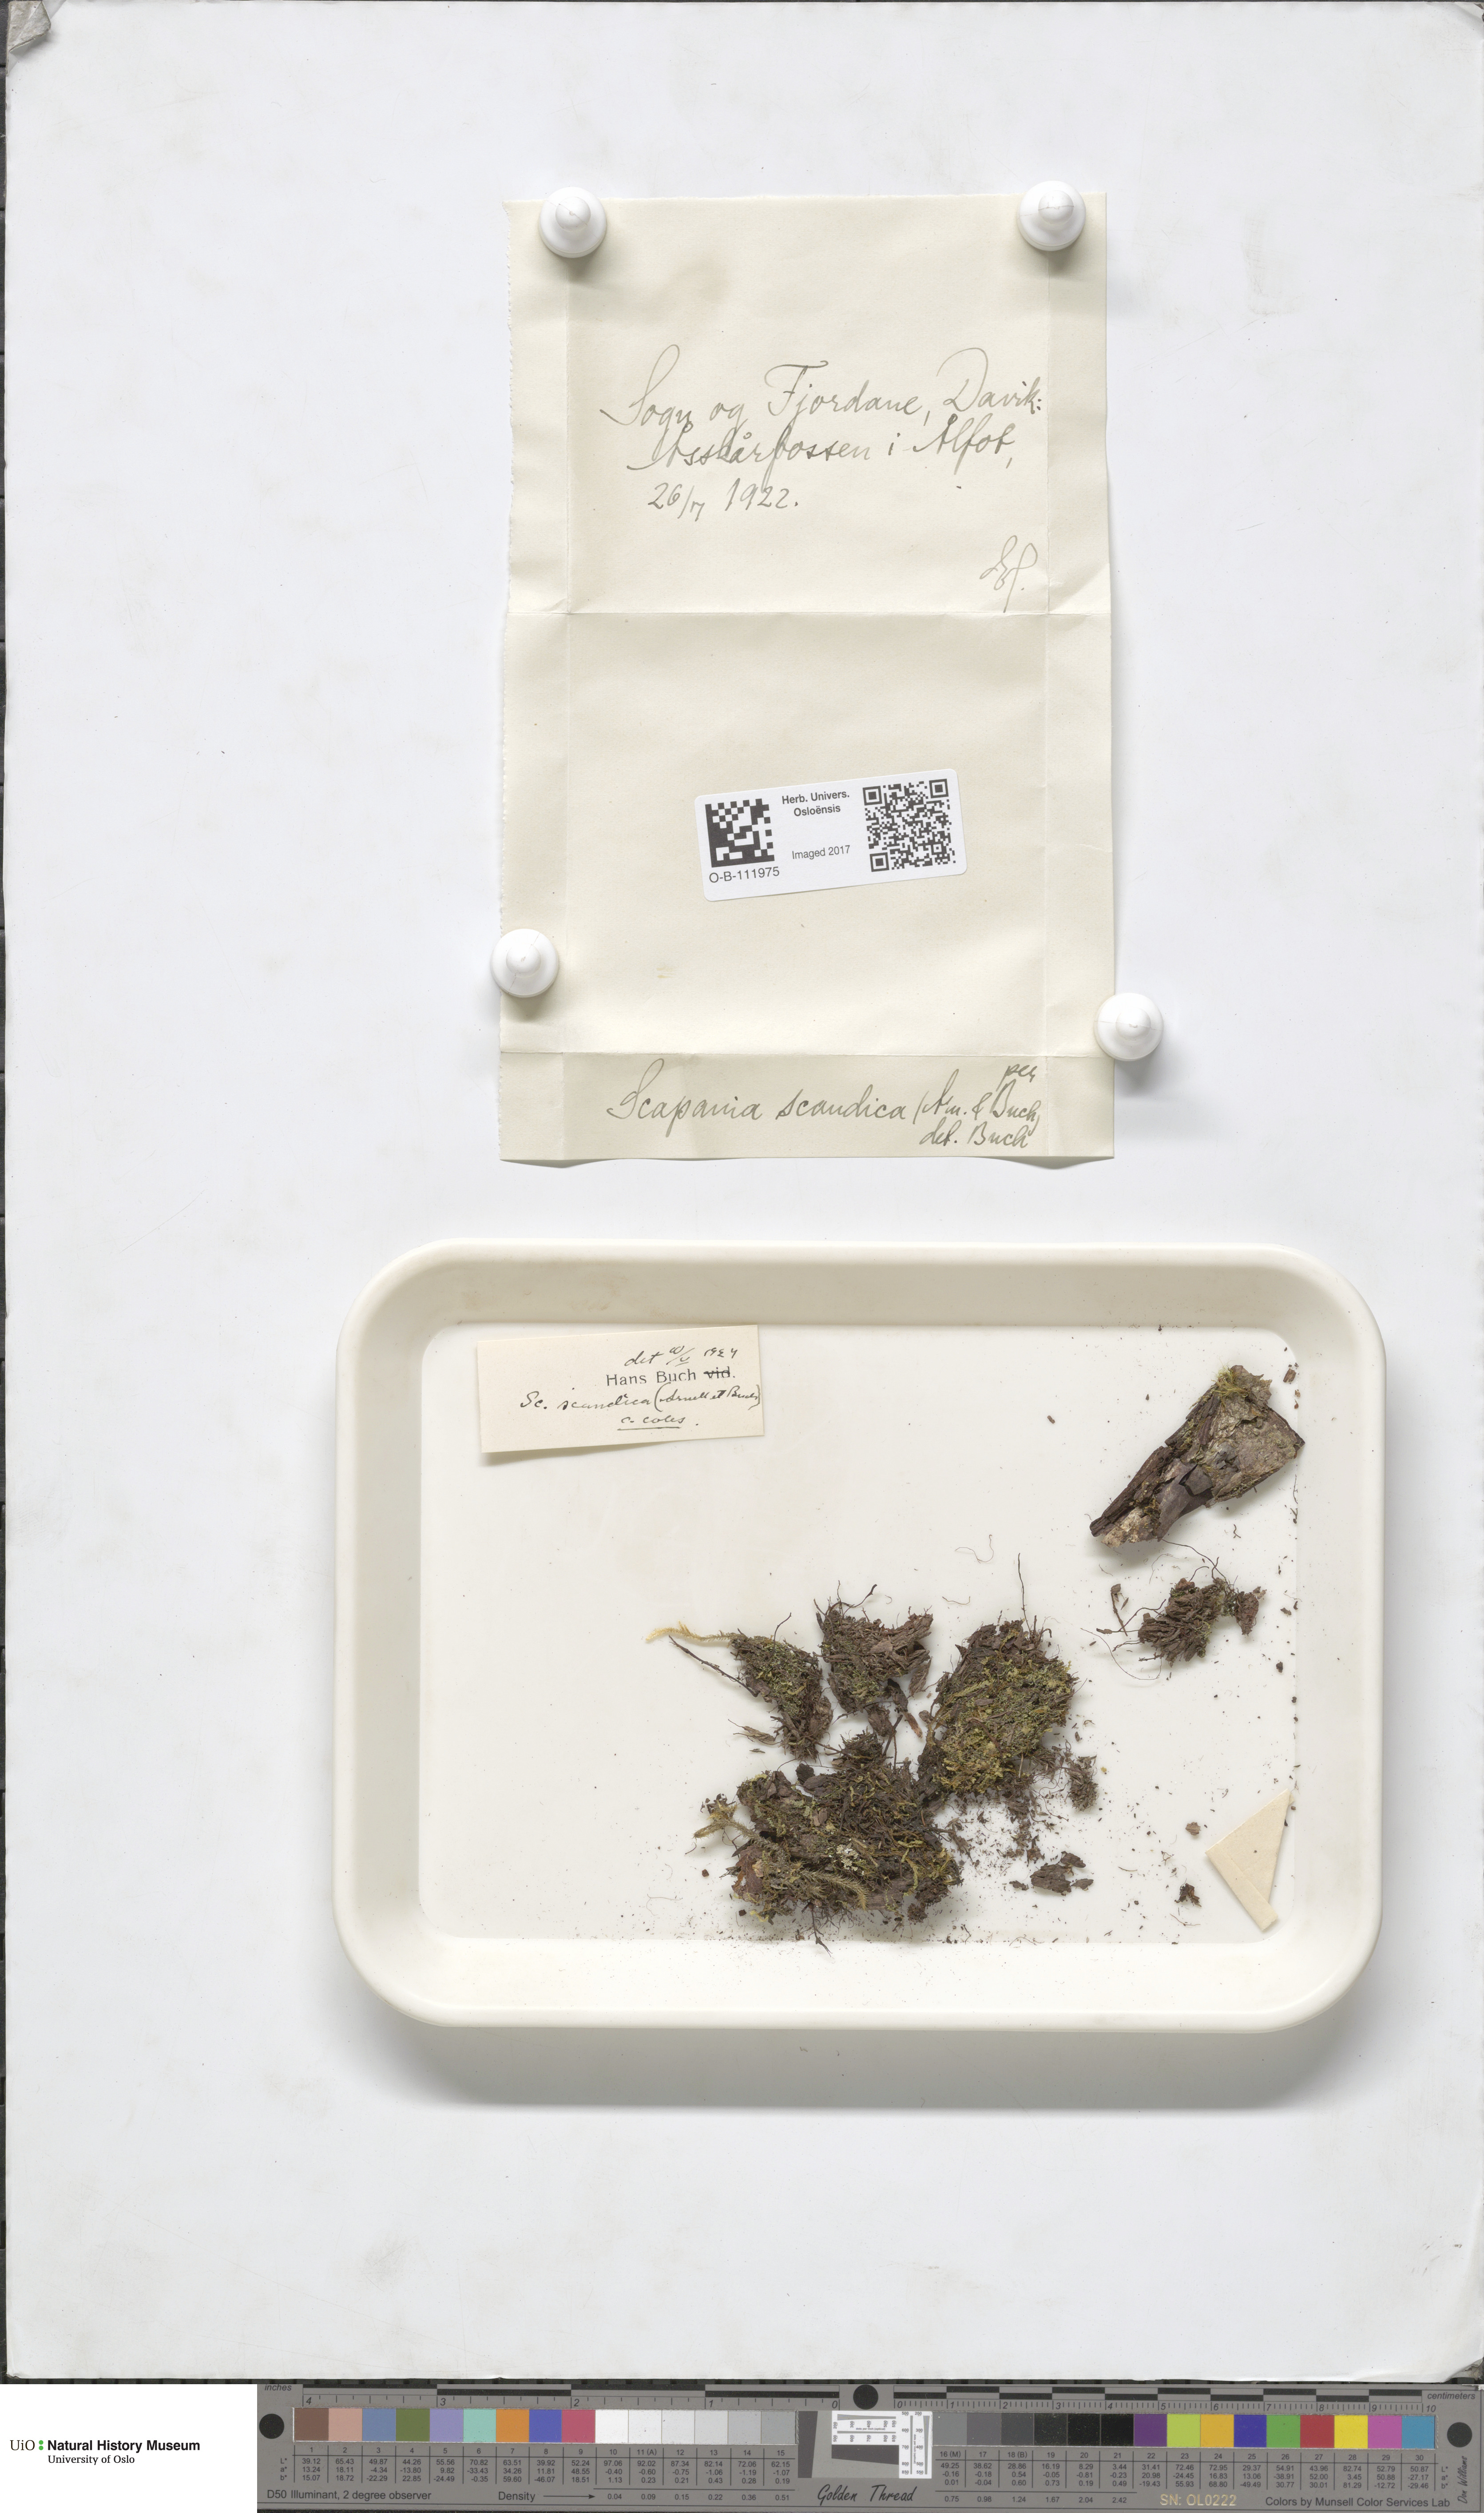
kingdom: Plantae
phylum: Marchantiophyta
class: Jungermanniopsida
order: Jungermanniales
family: Scapaniaceae
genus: Scapania
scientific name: Scapania scandica
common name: Norwegian earwort
